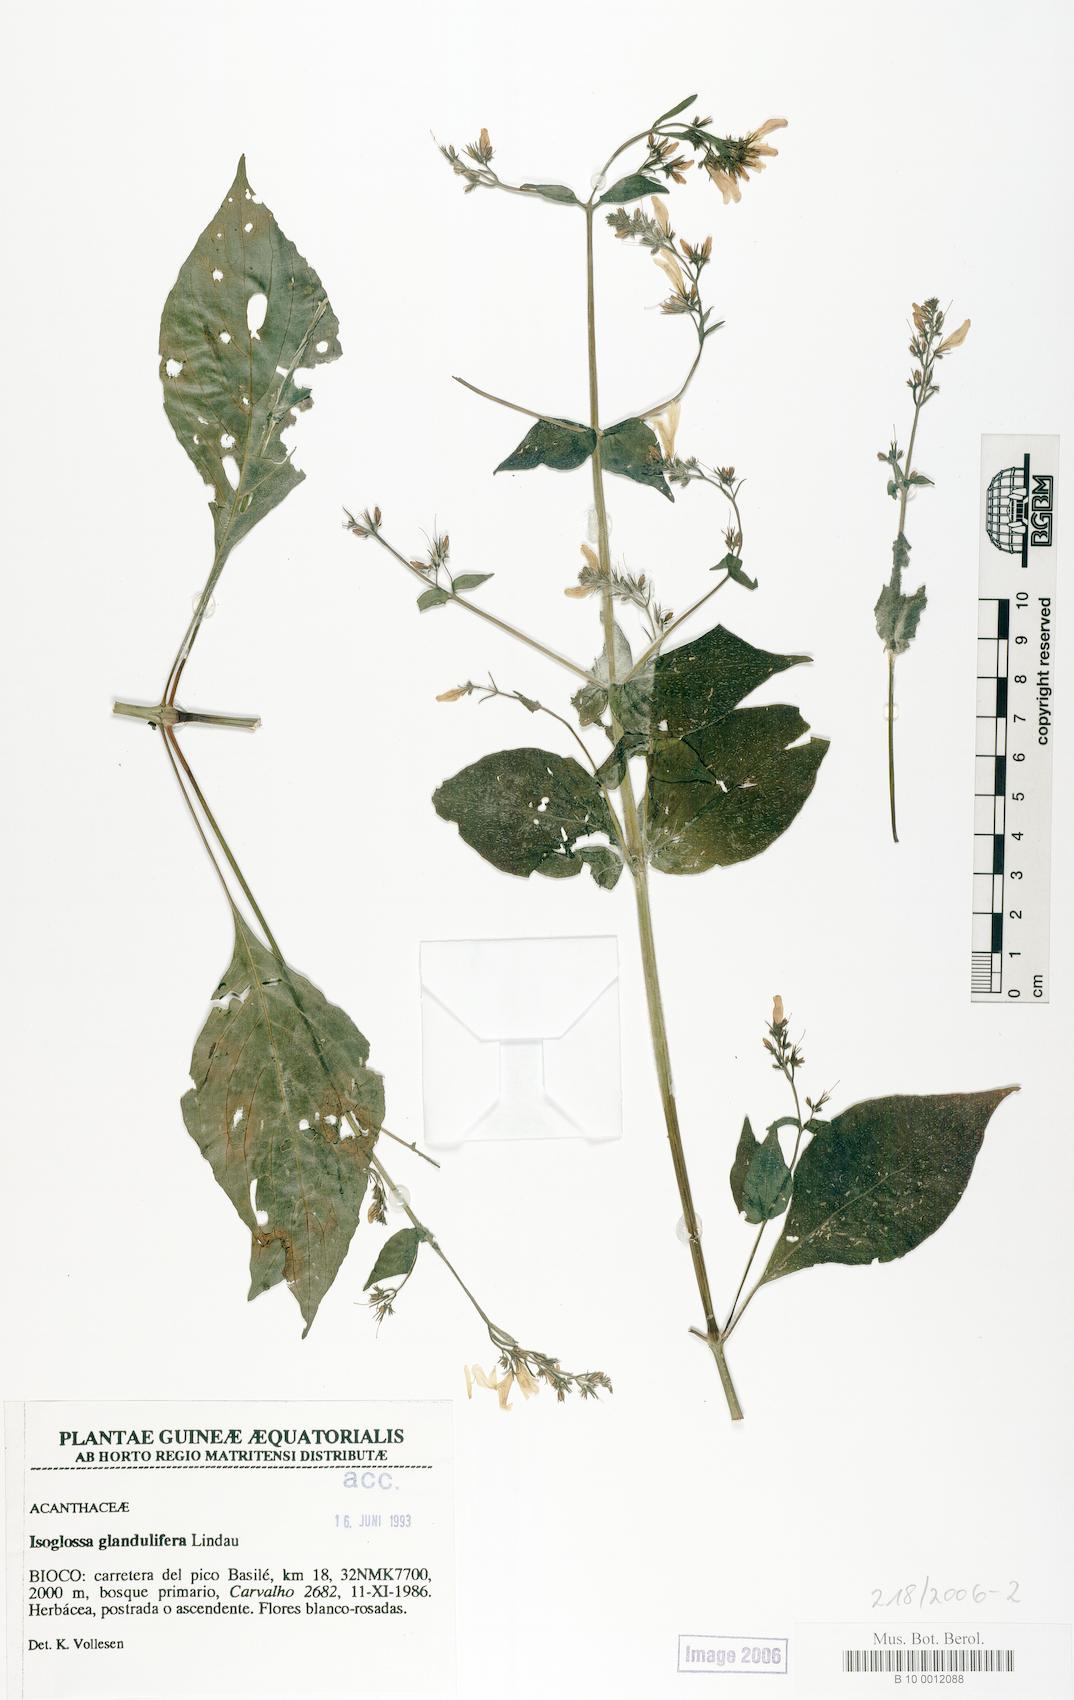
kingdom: Plantae
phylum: Tracheophyta
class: Magnoliopsida
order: Lamiales
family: Acanthaceae
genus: Isoglossa
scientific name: Isoglossa glandulifera
